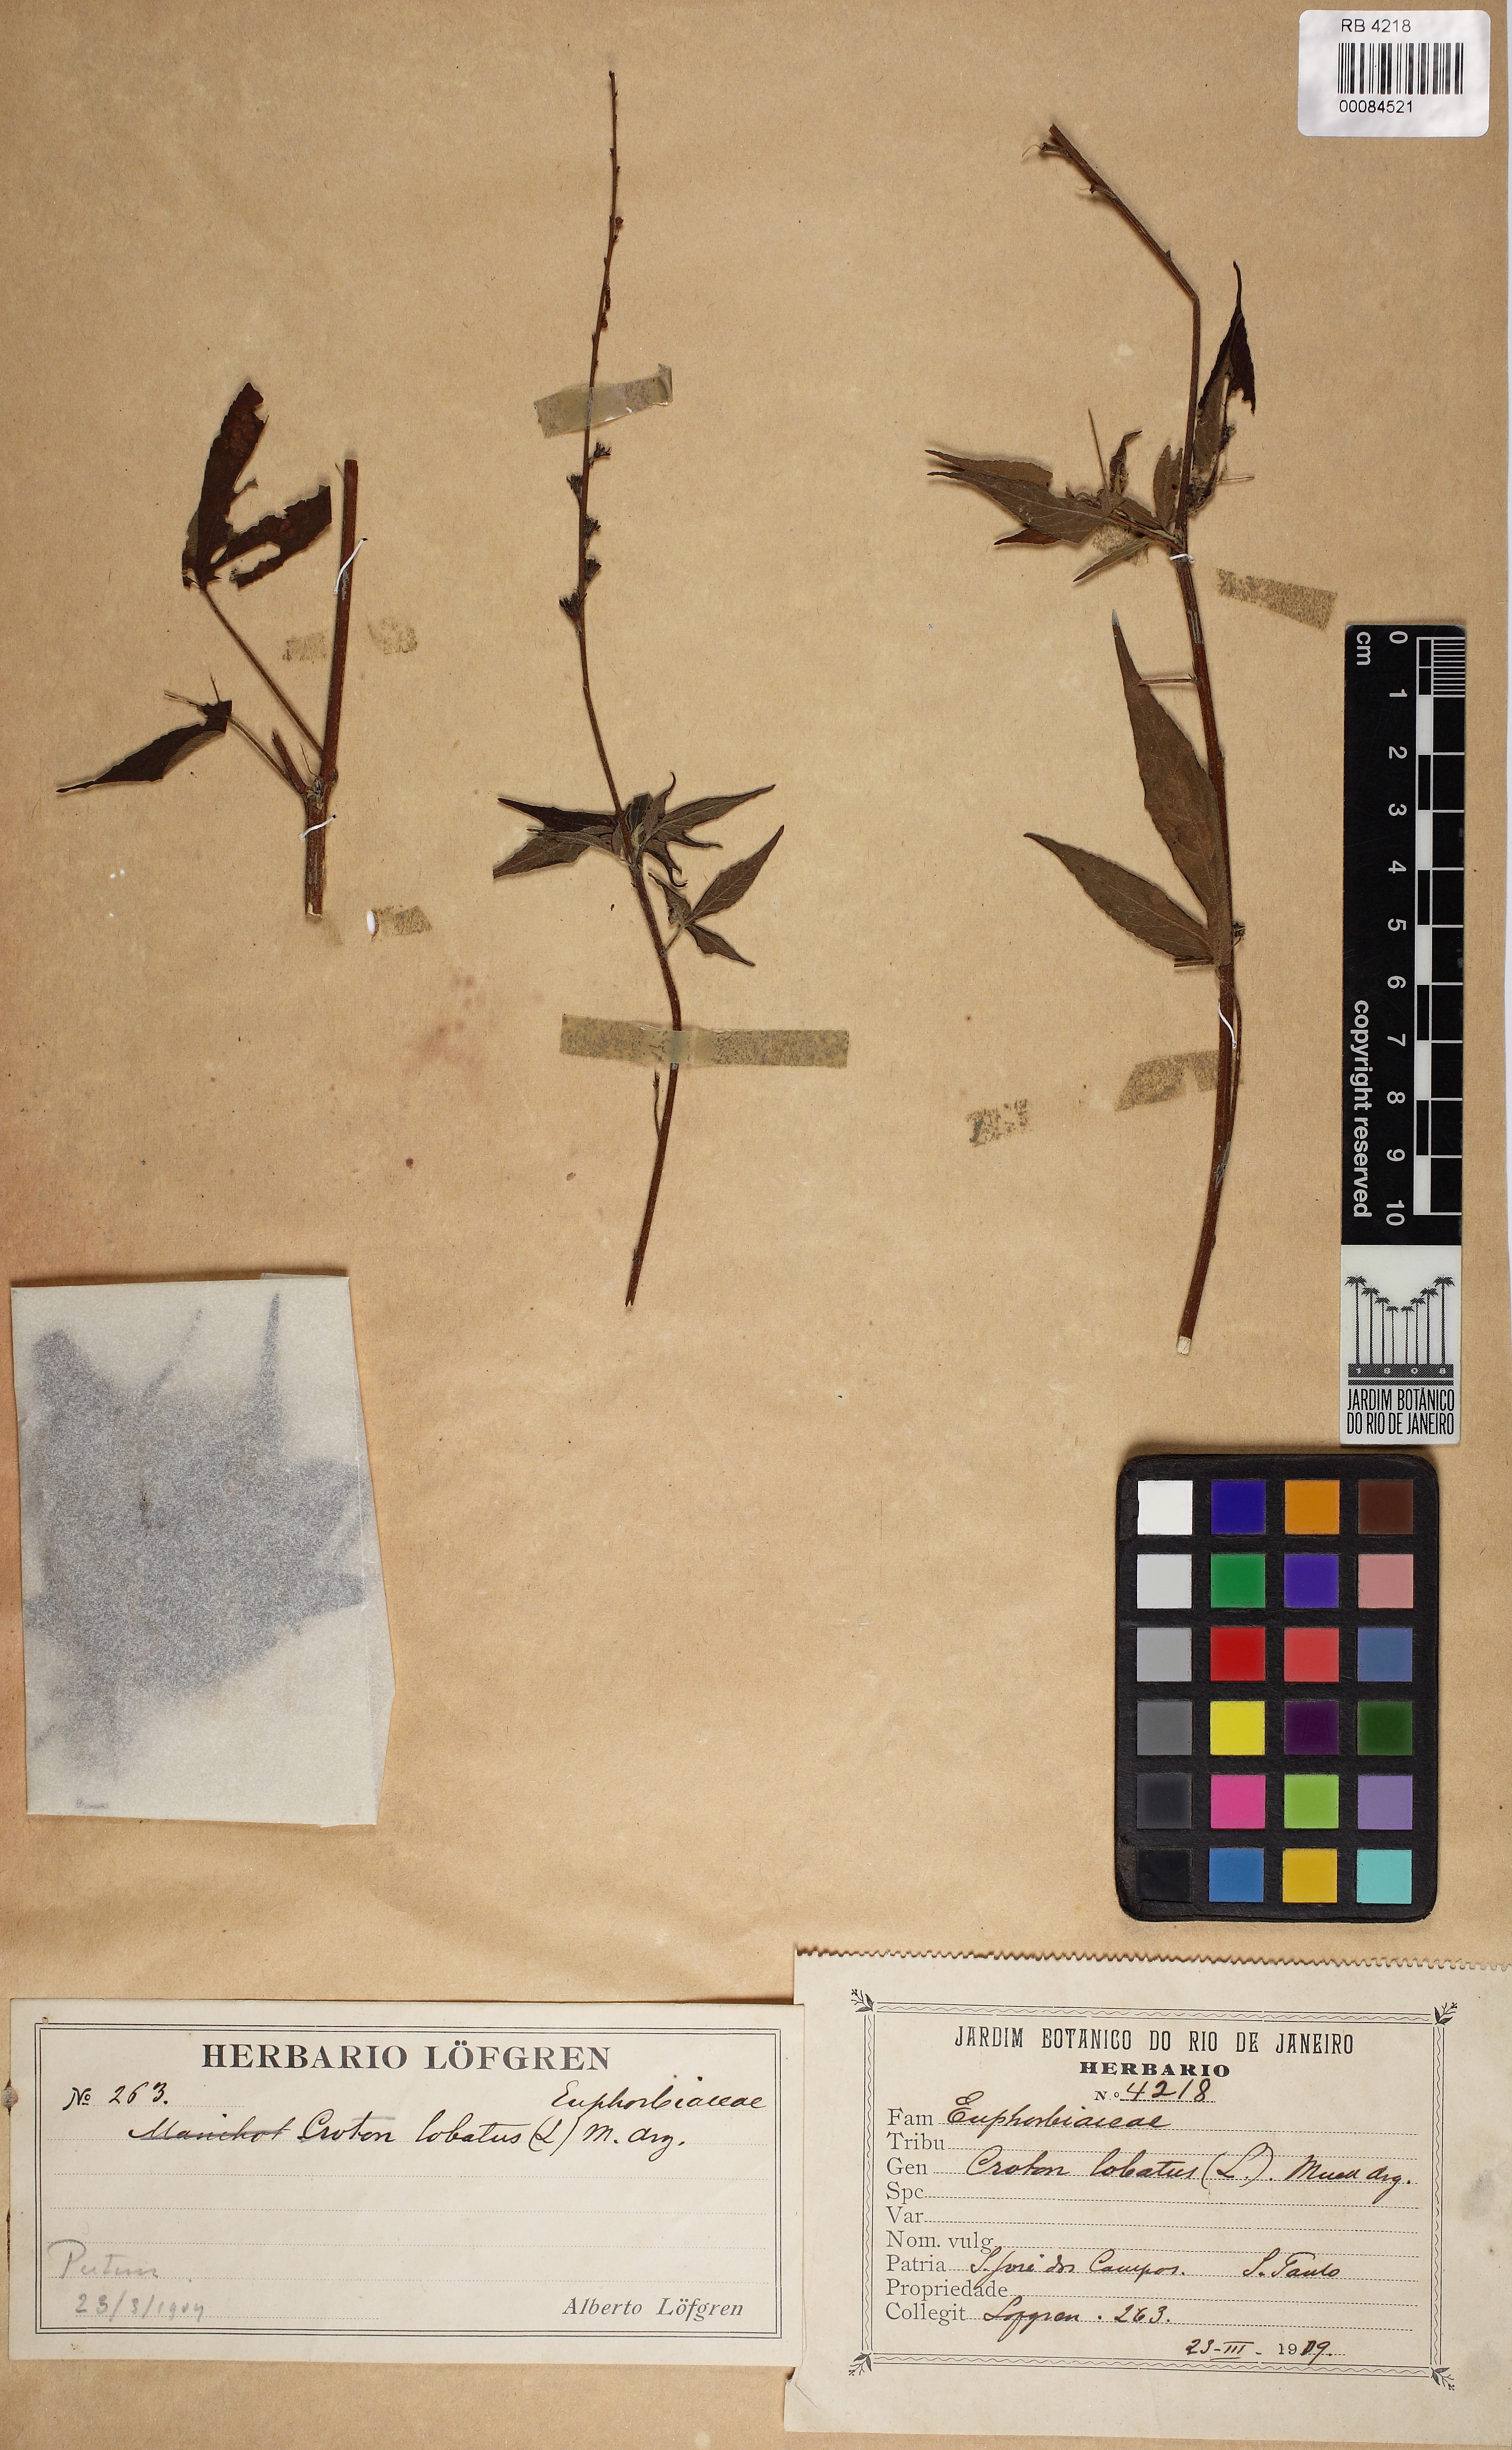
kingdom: Plantae
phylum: Tracheophyta
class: Magnoliopsida
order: Malpighiales
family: Euphorbiaceae
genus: Astraea
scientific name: Astraea jatropha
